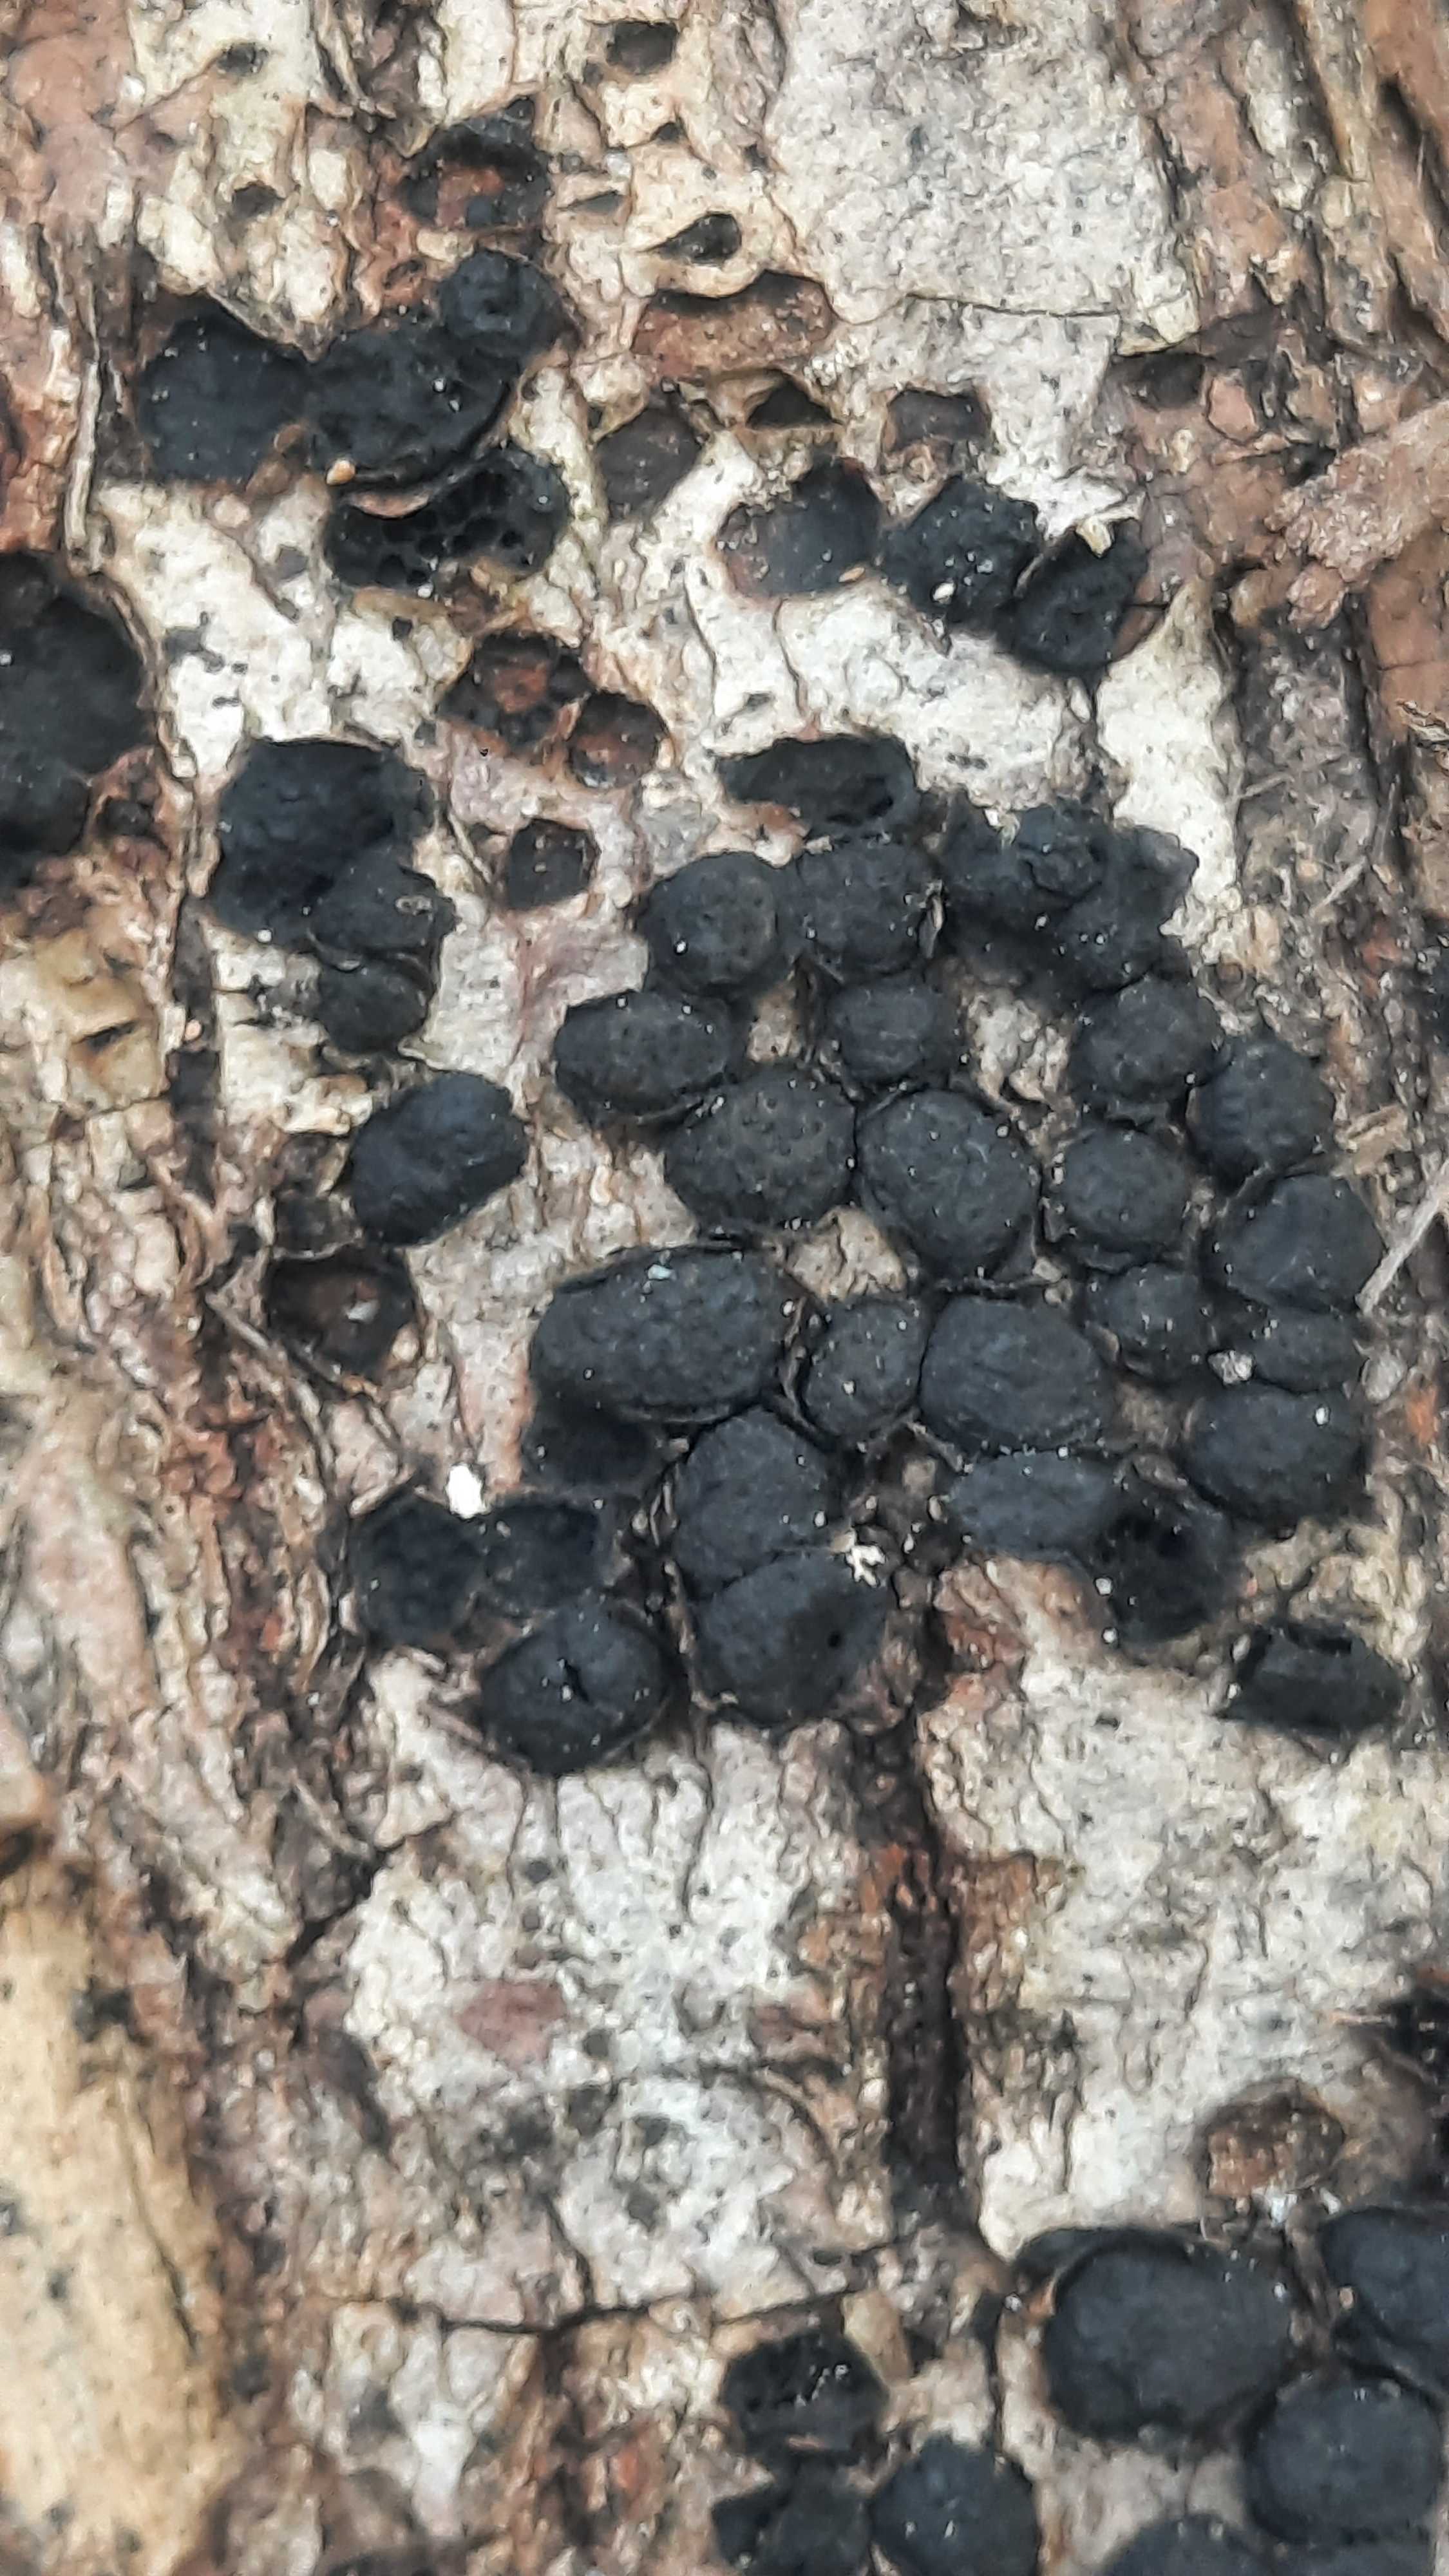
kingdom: Fungi
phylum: Ascomycota
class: Sordariomycetes
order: Xylariales
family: Diatrypaceae
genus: Diatrypella
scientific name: Diatrypella quercina
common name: ege-kulskorpe
